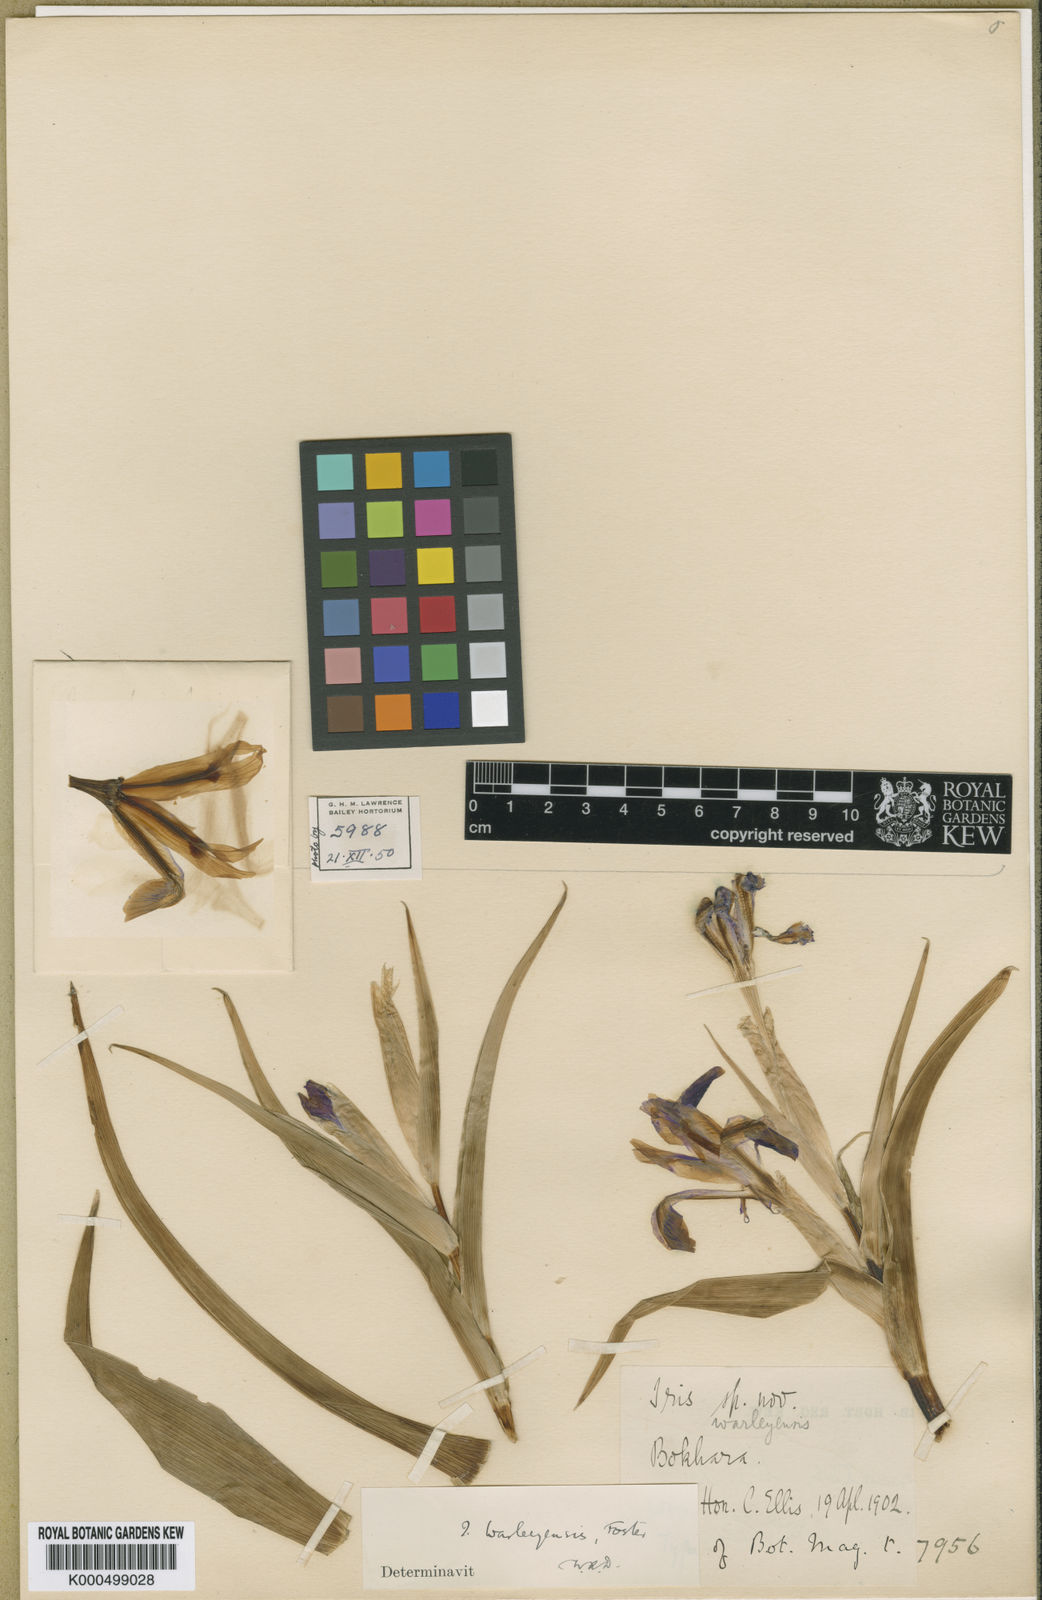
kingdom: Plantae
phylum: Tracheophyta
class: Liliopsida
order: Asparagales
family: Iridaceae
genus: Iris
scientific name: Iris warleyensis
